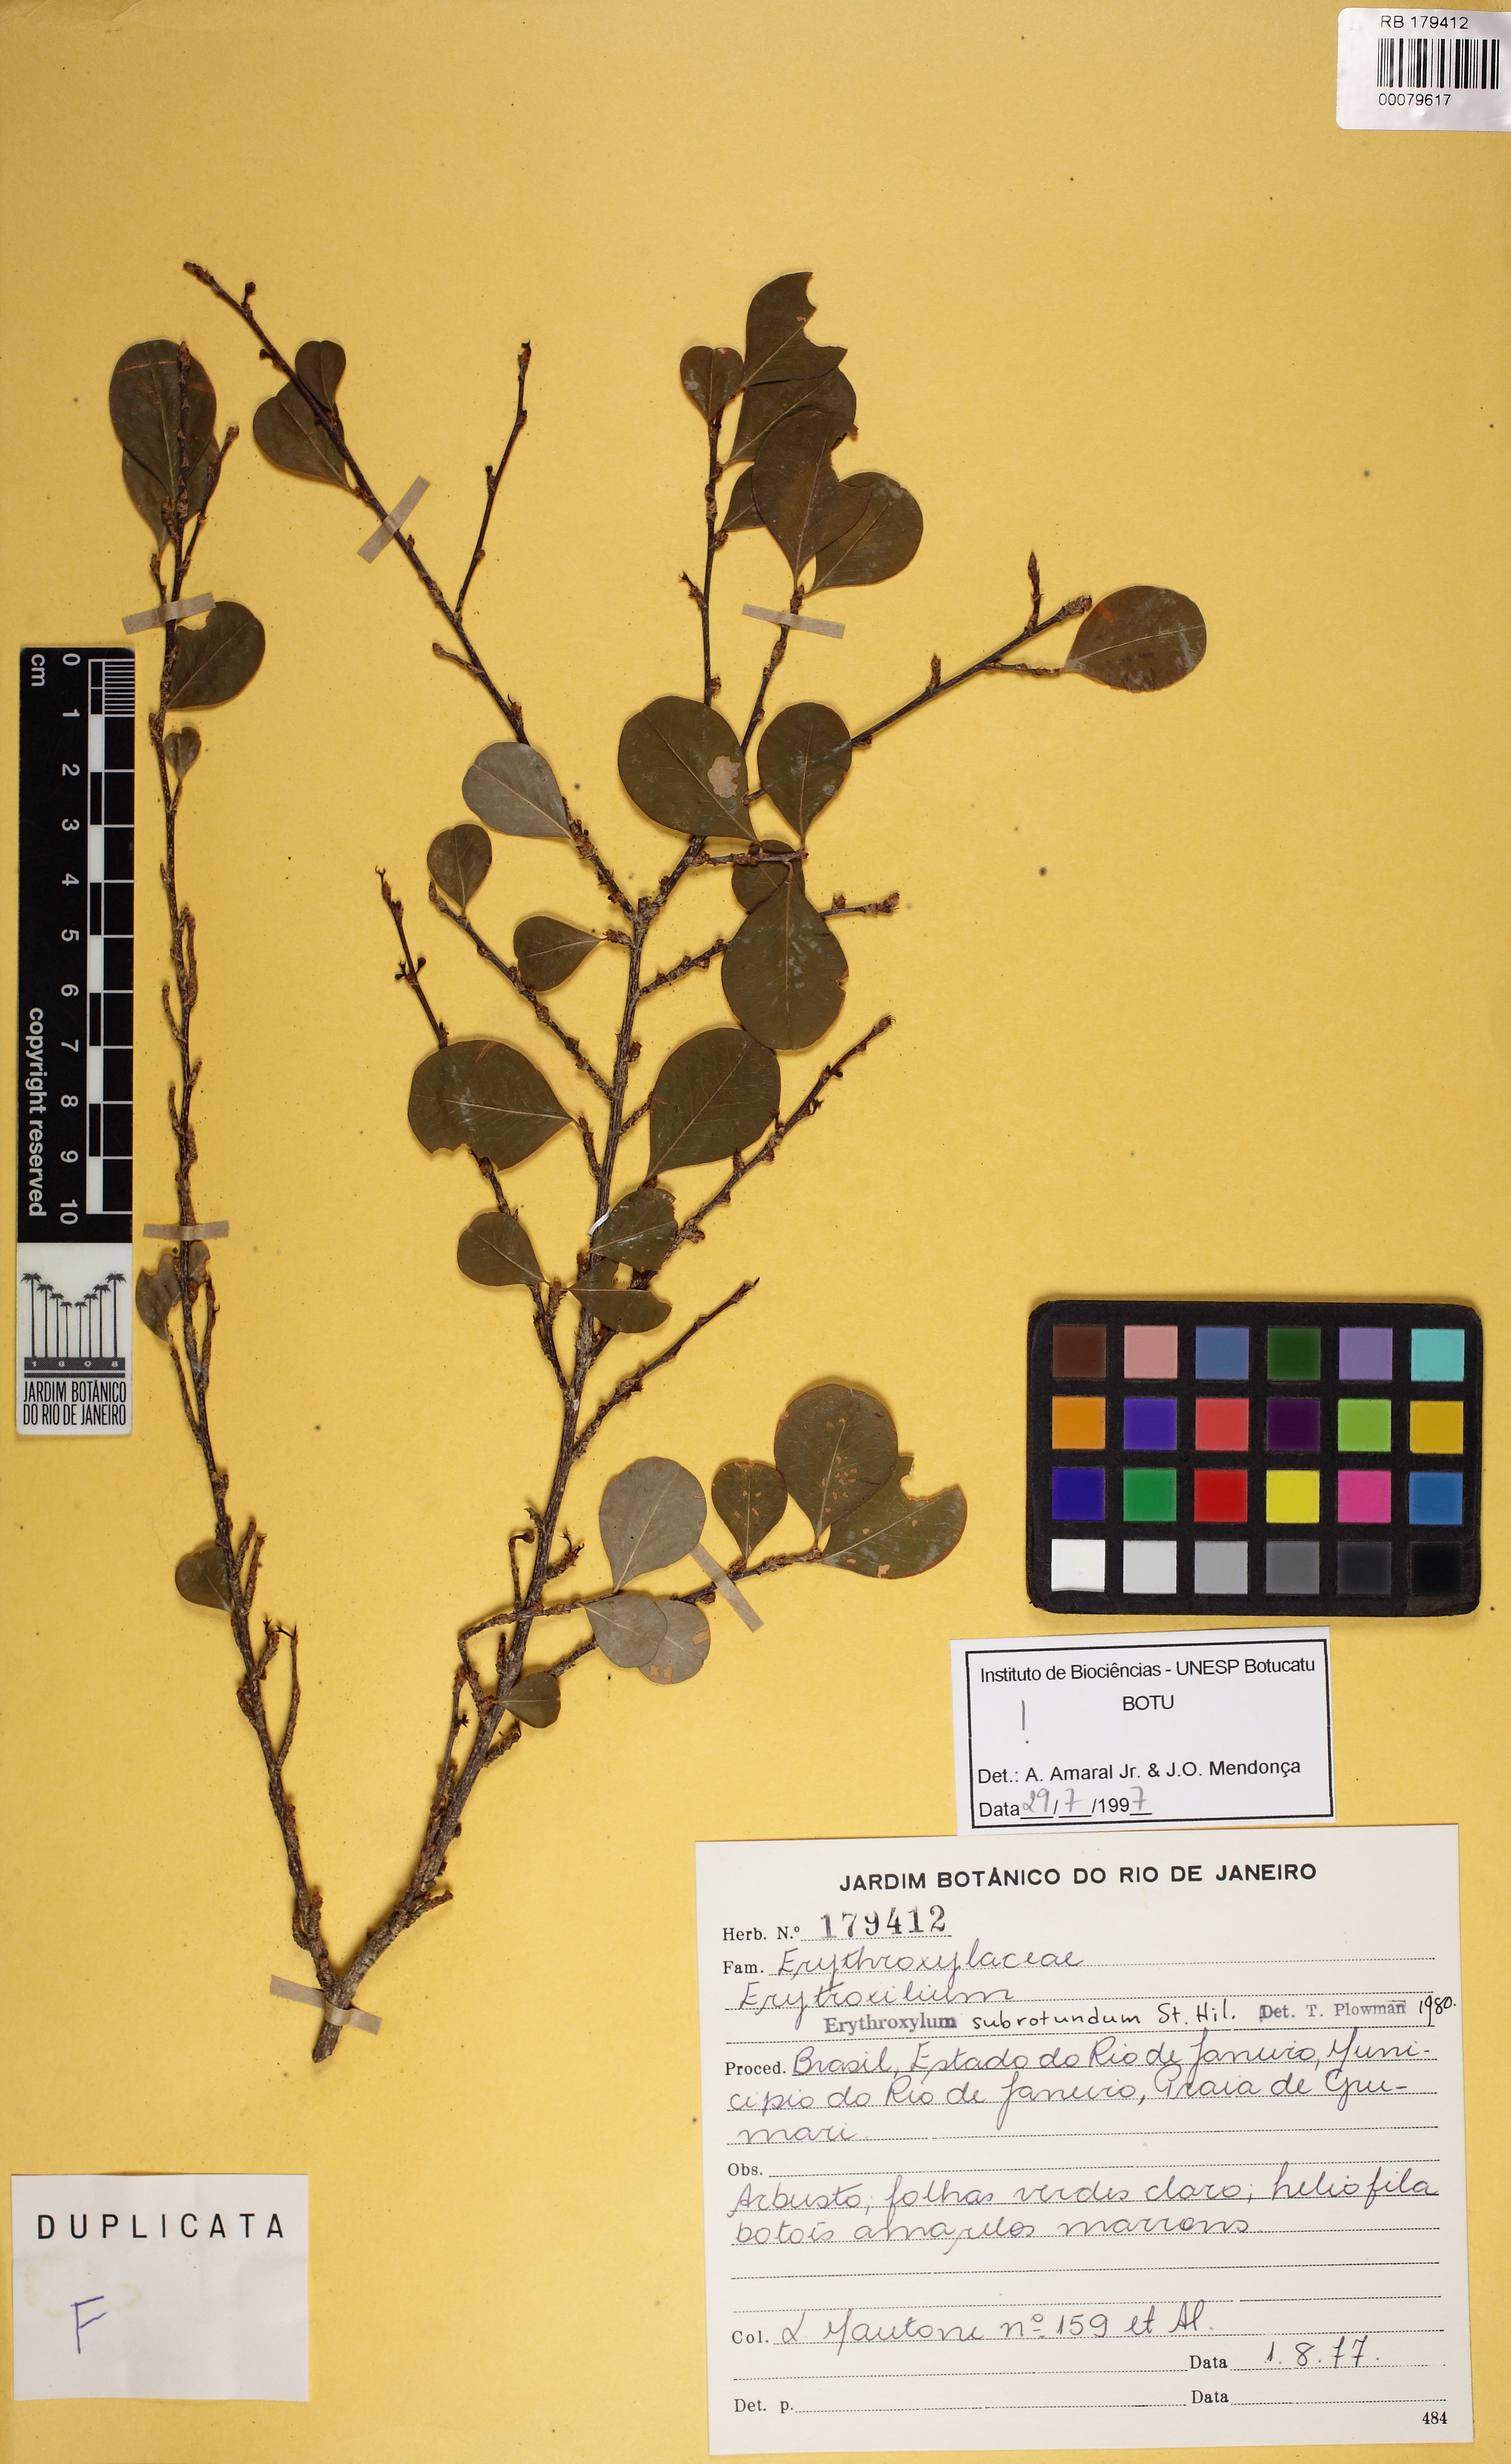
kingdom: Plantae
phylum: Tracheophyta
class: Magnoliopsida
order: Malpighiales
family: Erythroxylaceae
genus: Erythroxylum
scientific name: Erythroxylum subrotundum
